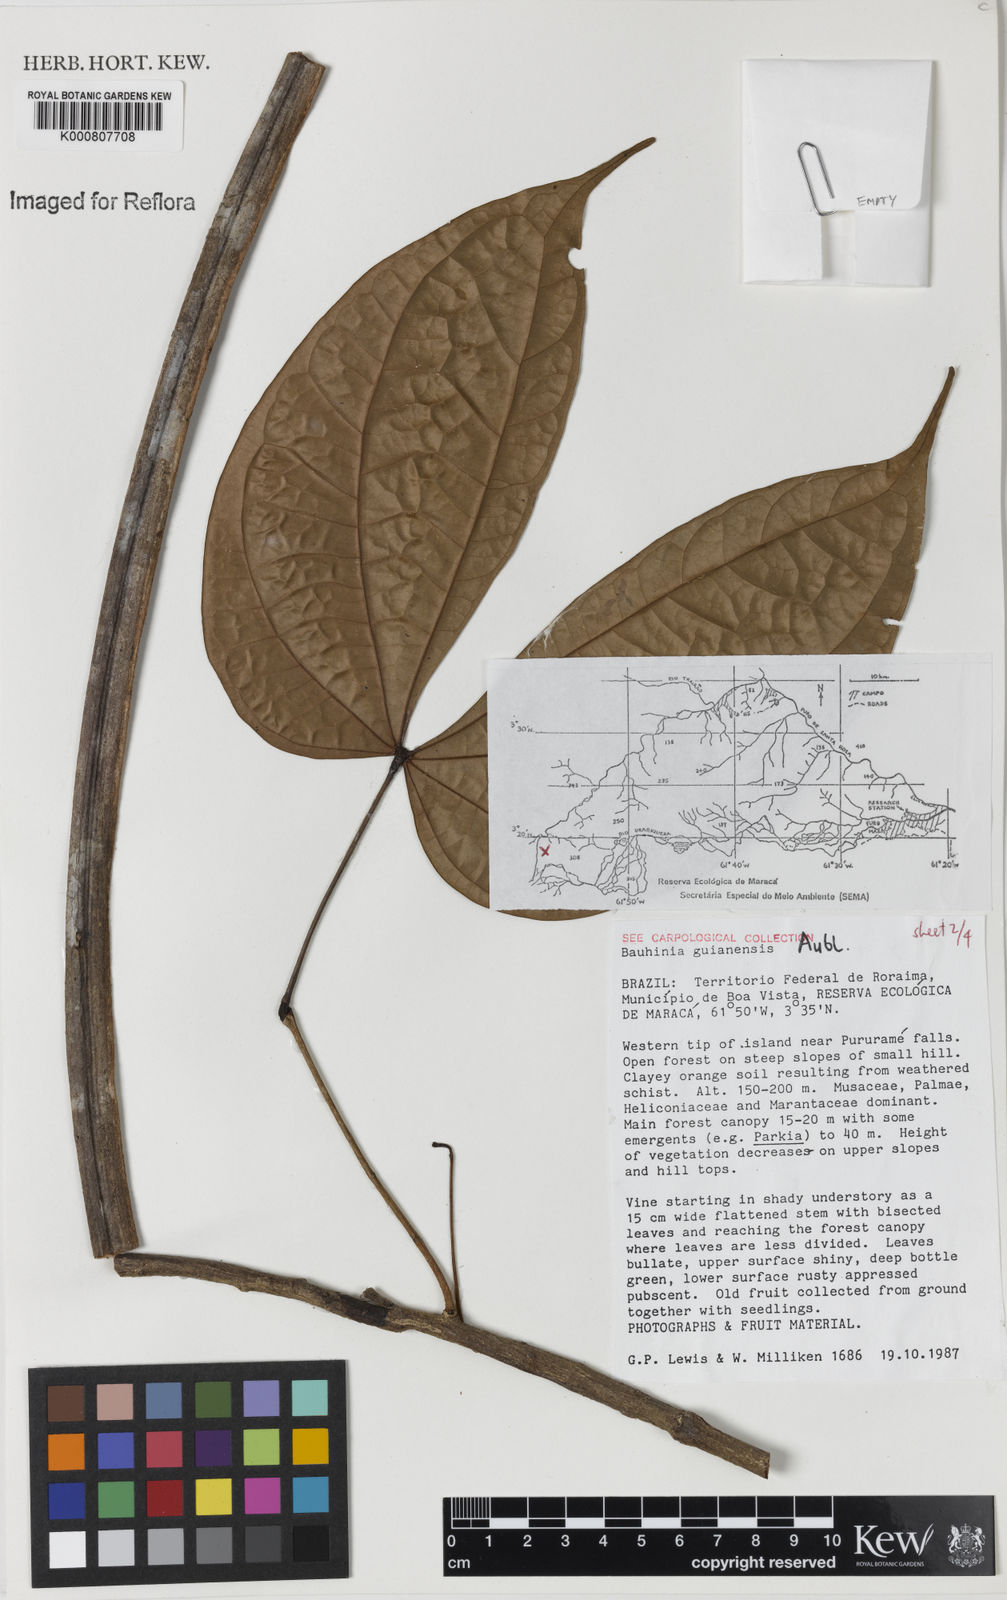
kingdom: Plantae
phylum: Tracheophyta
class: Magnoliopsida
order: Fabales
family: Fabaceae
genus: Schnella
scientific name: Schnella guianensis
